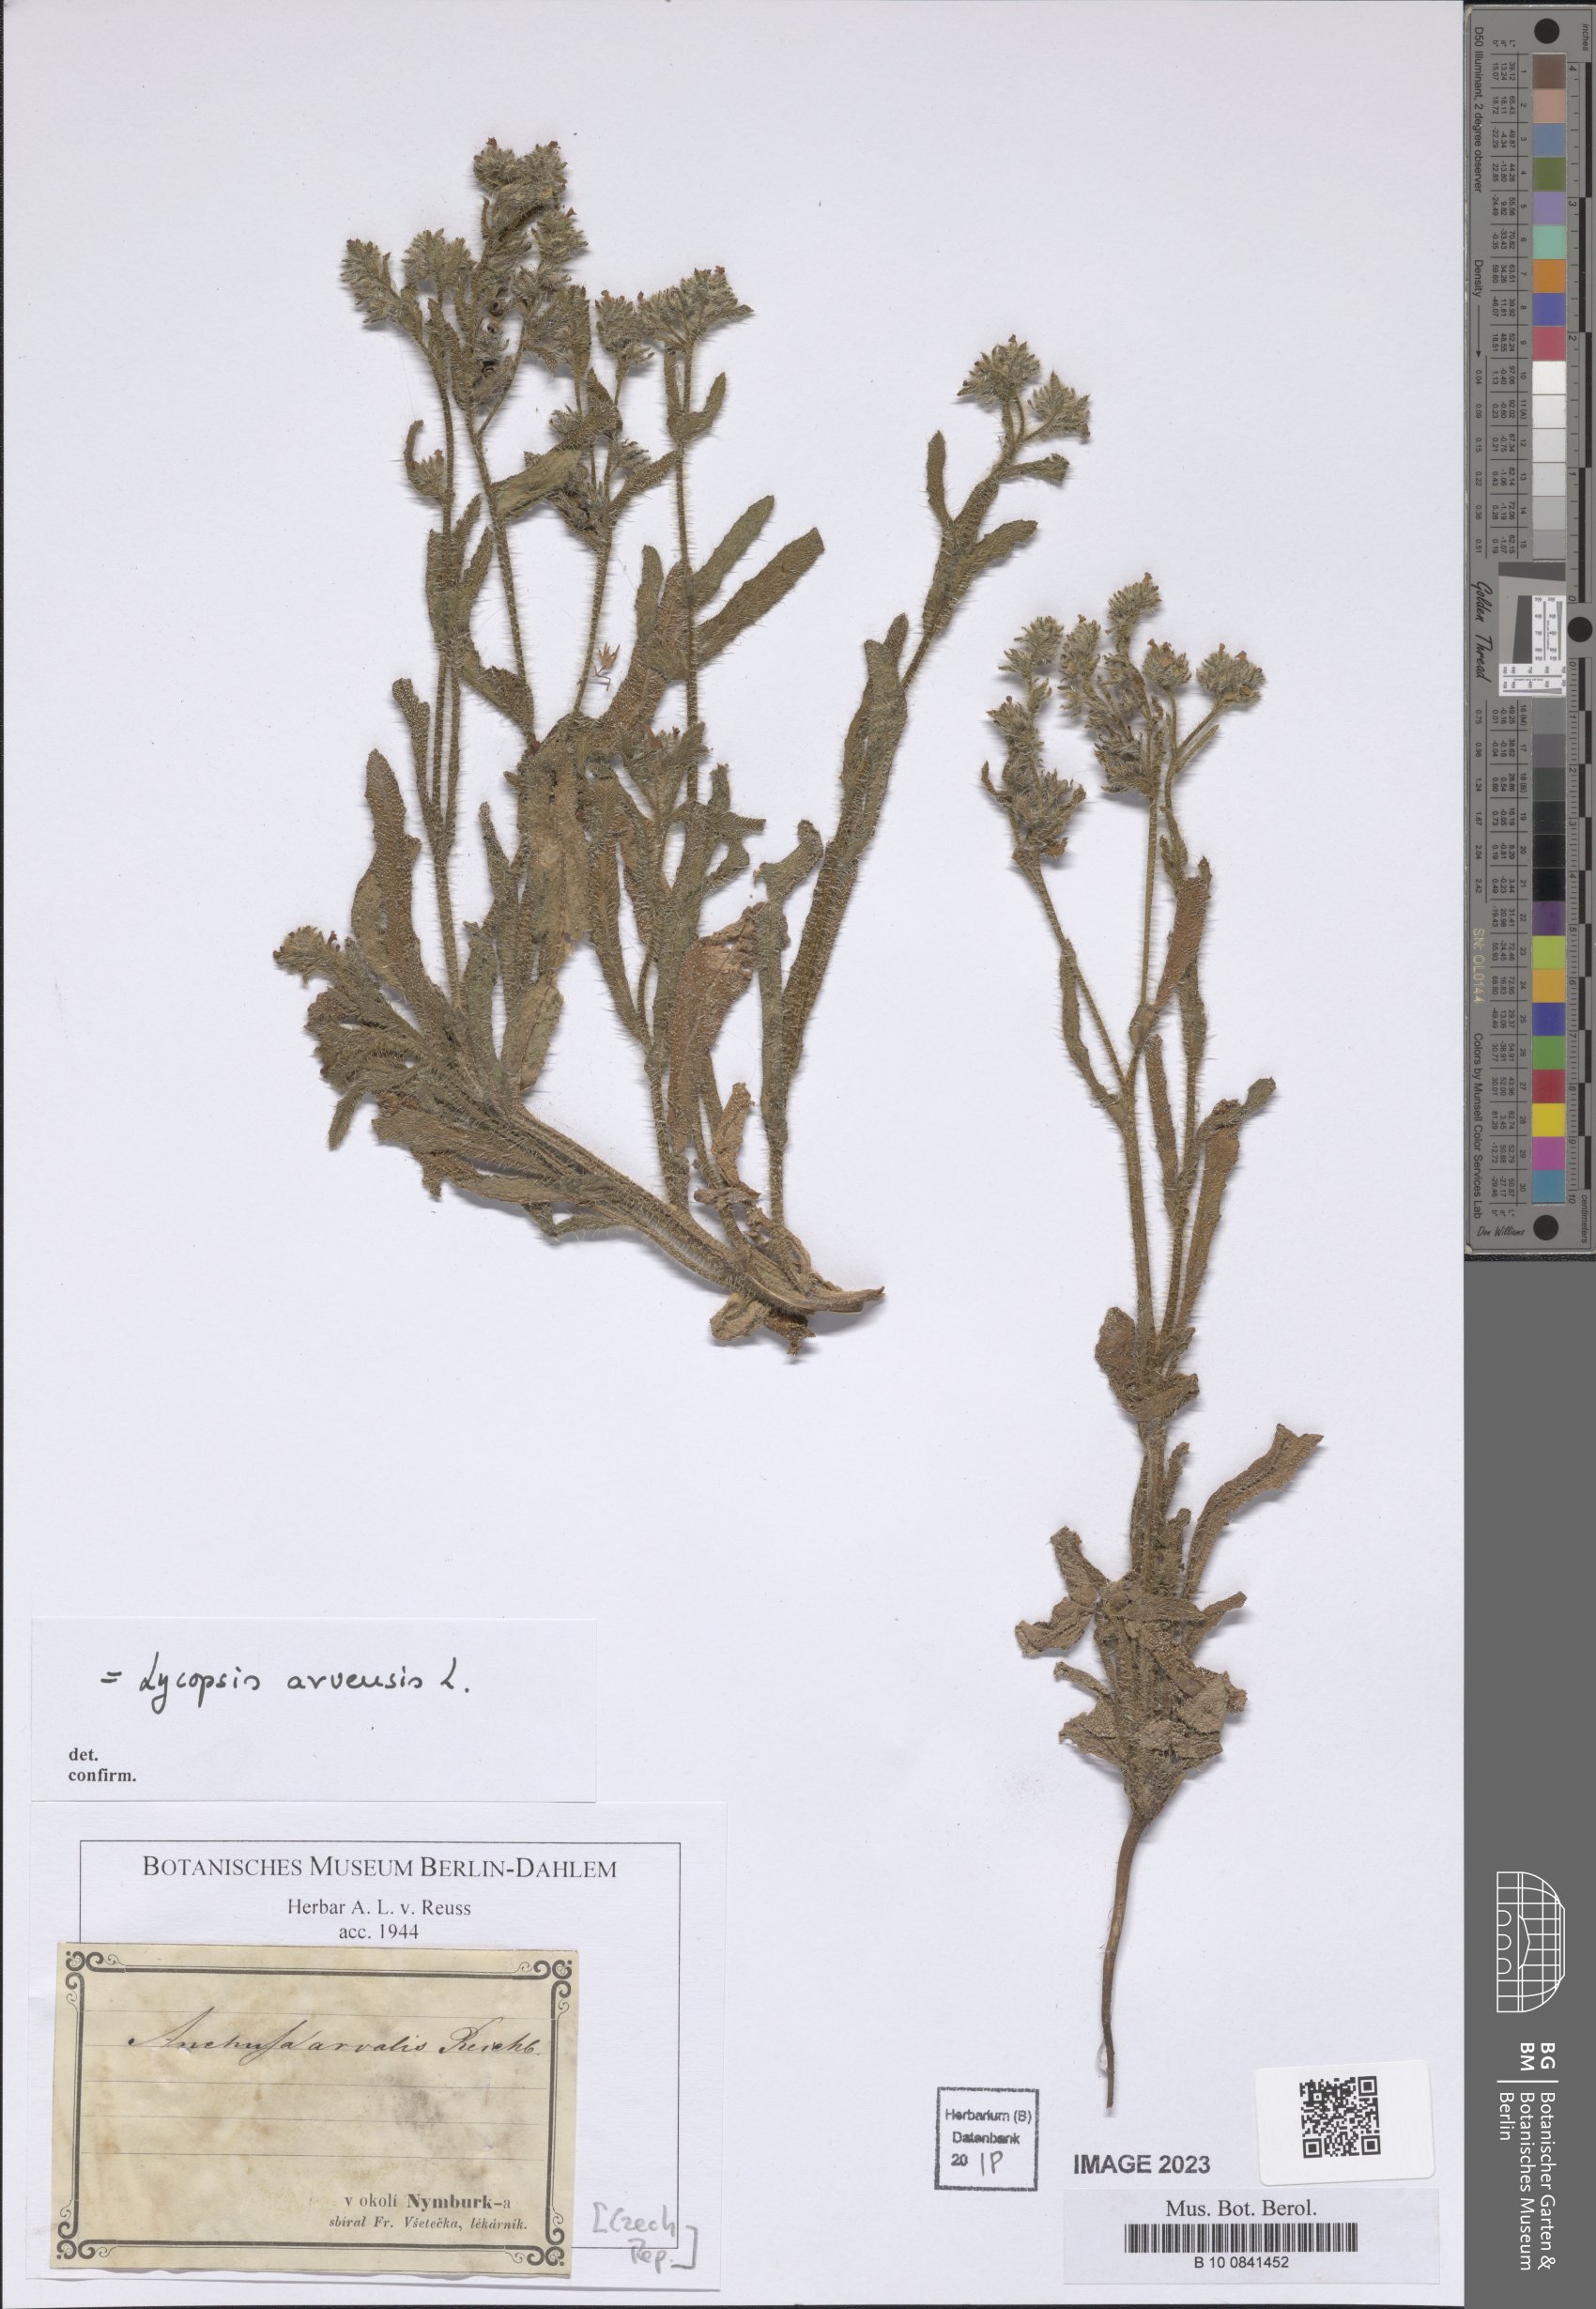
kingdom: Plantae
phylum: Tracheophyta
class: Magnoliopsida
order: Boraginales
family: Boraginaceae
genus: Lycopsis
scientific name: Lycopsis arvensis
